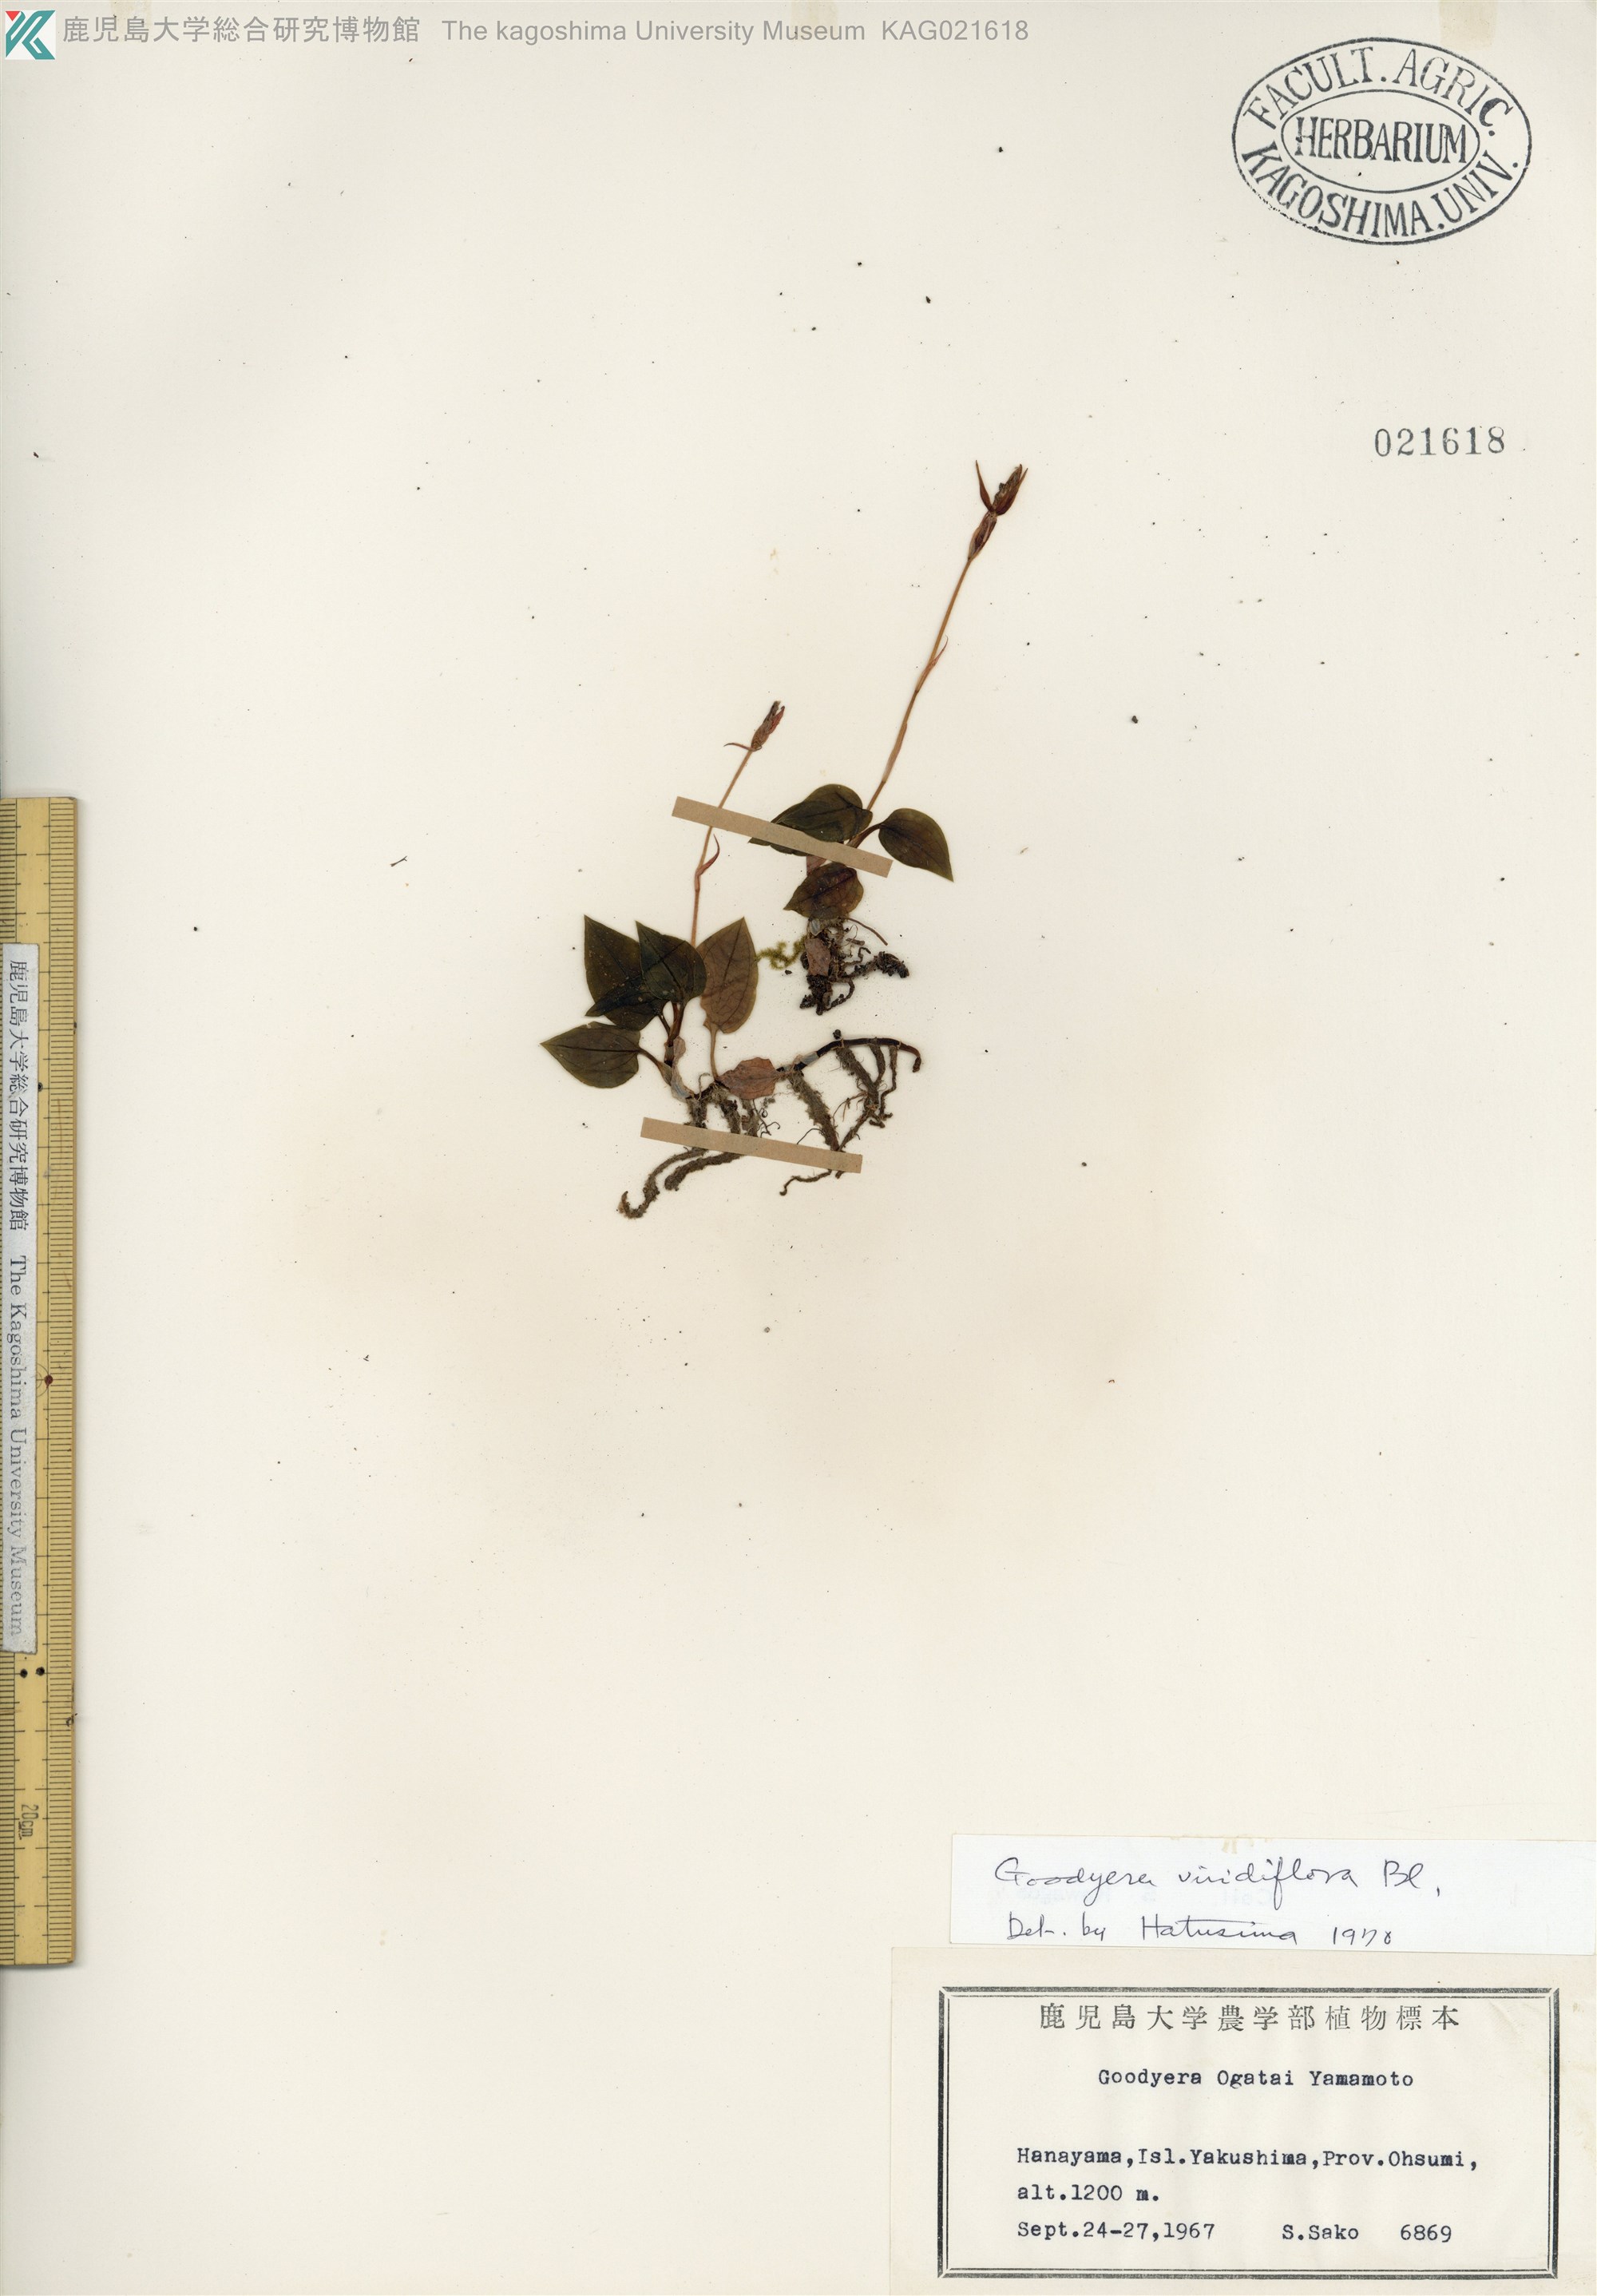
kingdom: Plantae
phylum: Tracheophyta
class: Liliopsida
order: Asparagales
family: Orchidaceae
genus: Goodyera
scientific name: Goodyera viridiflora
